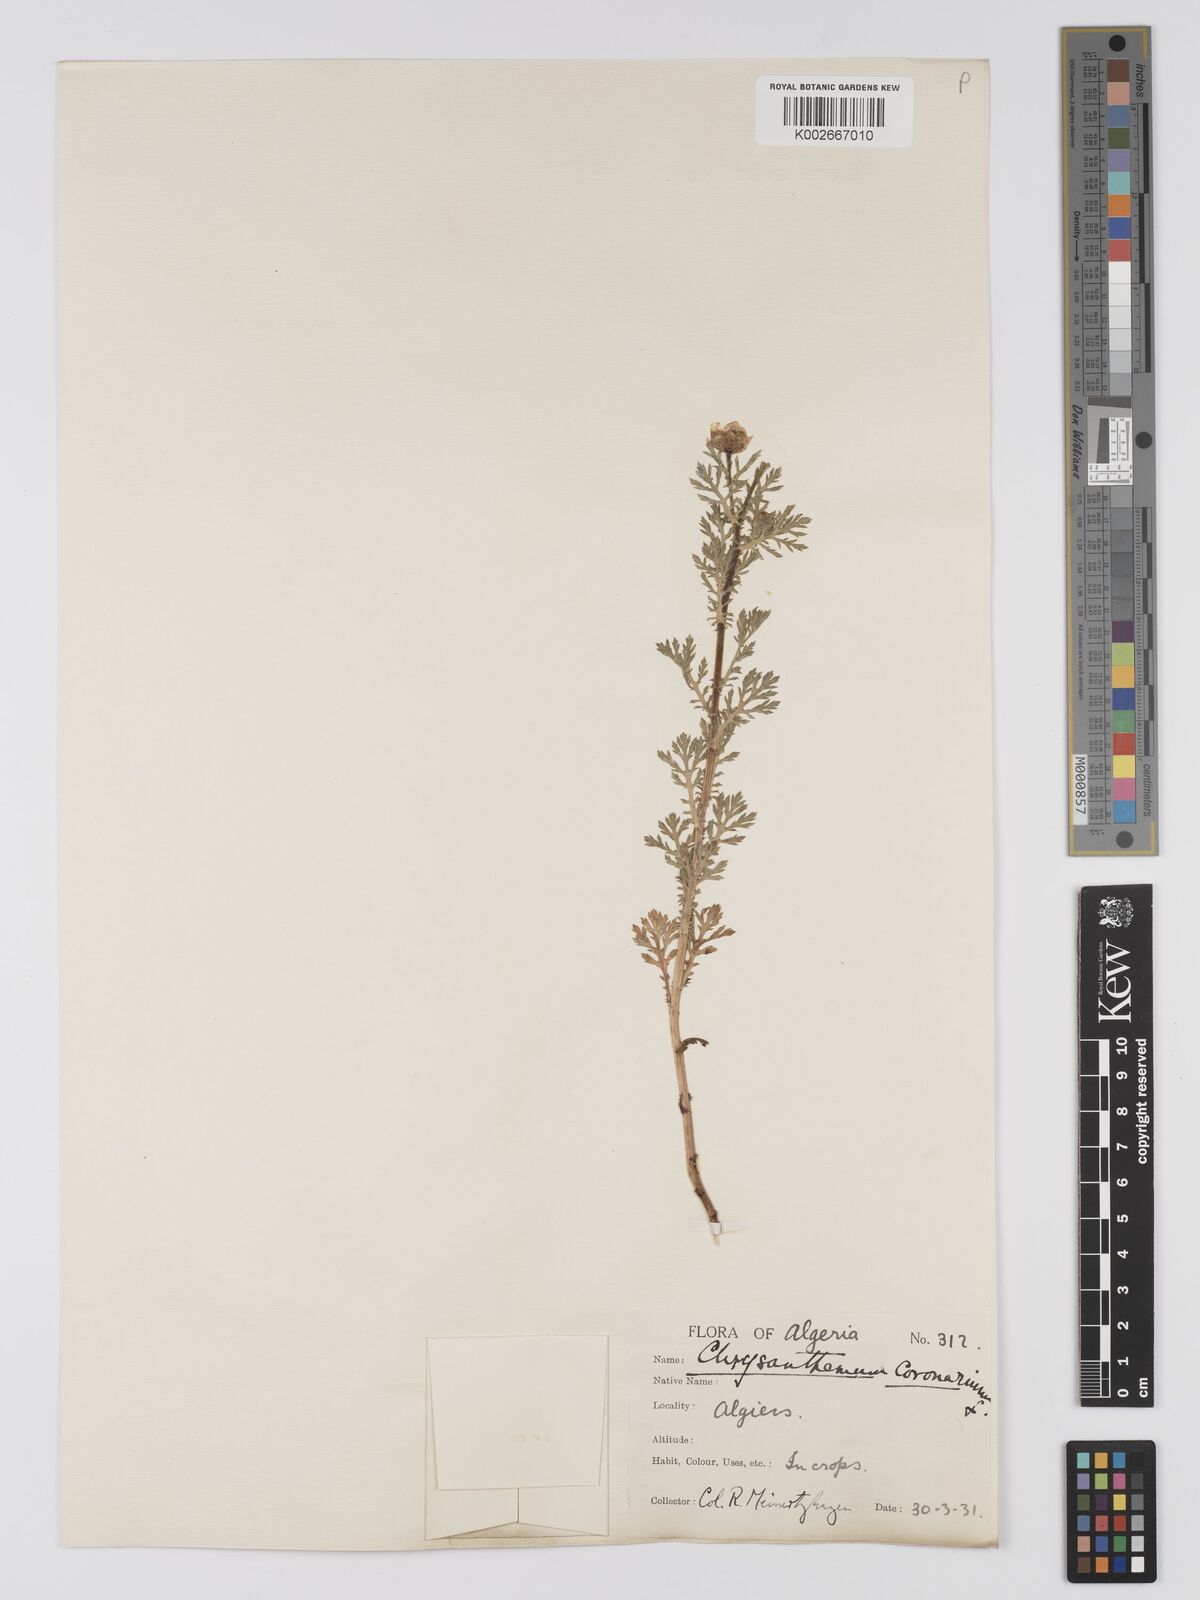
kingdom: Plantae
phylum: Tracheophyta
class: Magnoliopsida
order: Asterales
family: Asteraceae
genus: Glebionis
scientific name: Glebionis
